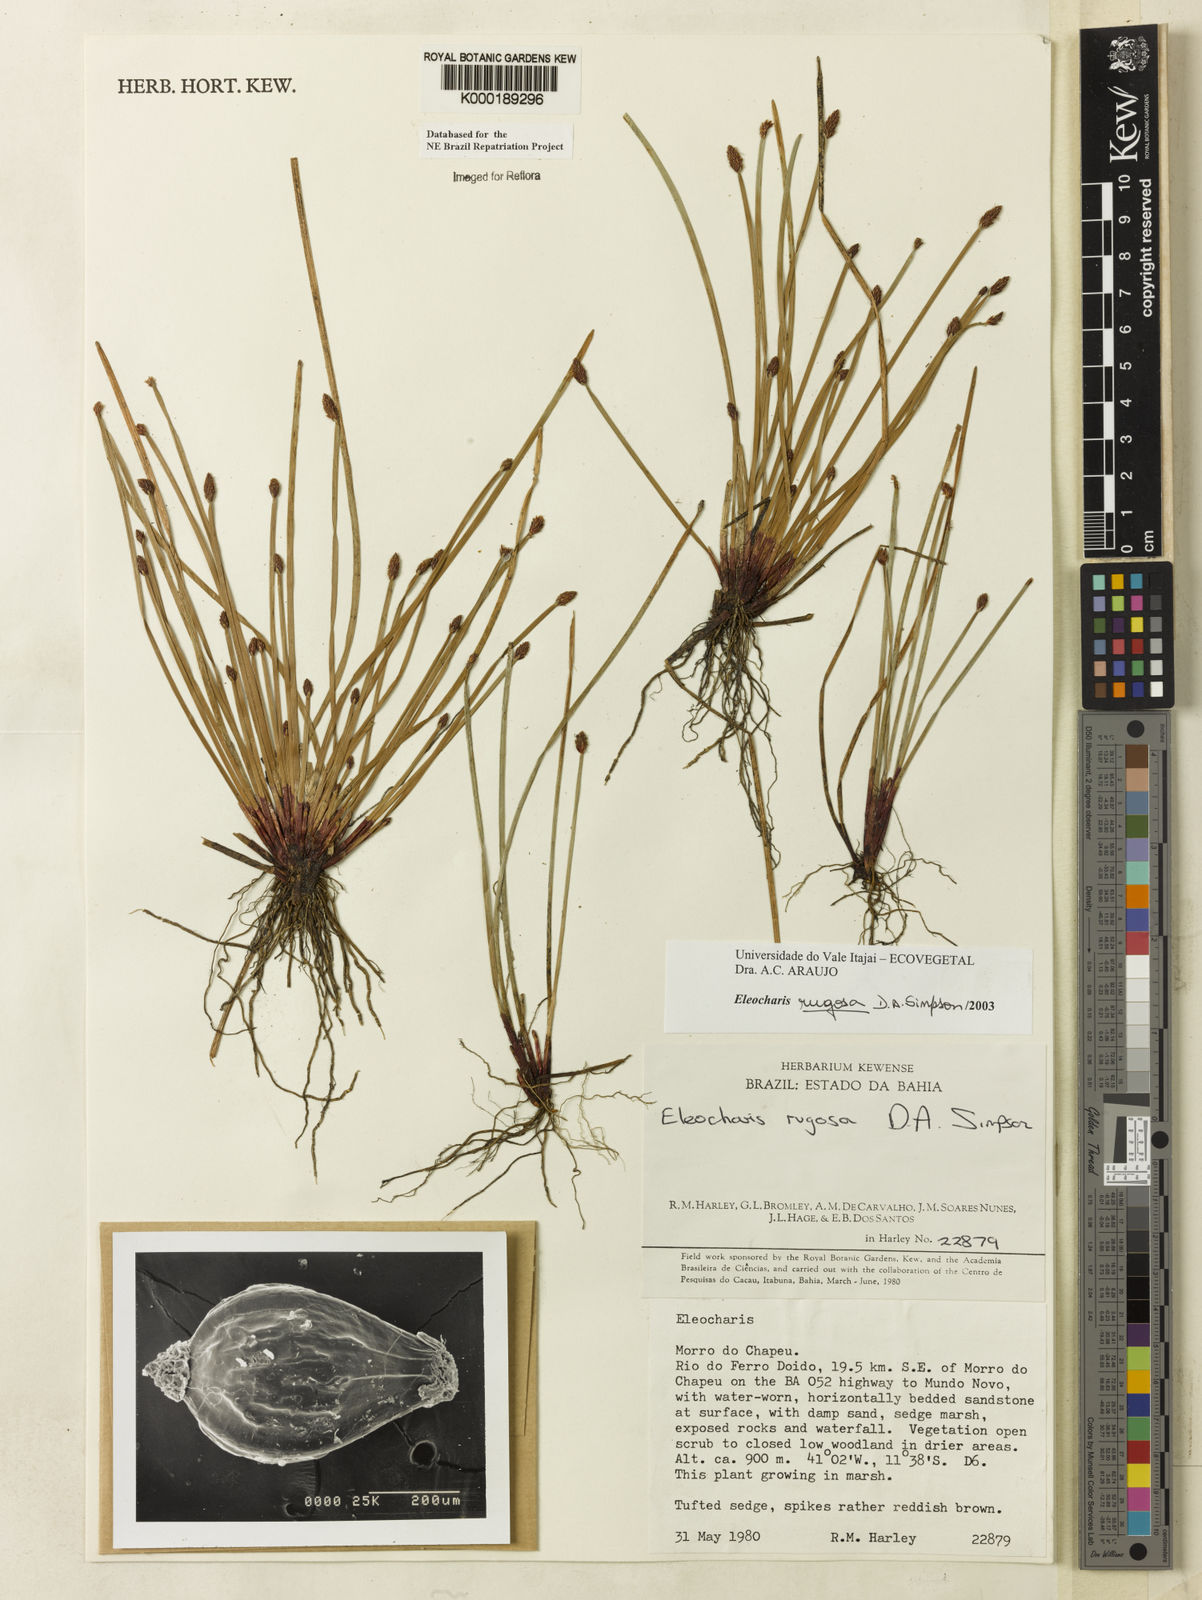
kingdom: Plantae
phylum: Tracheophyta
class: Liliopsida
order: Poales
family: Cyperaceae
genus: Eleocharis
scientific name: Eleocharis rugosa
